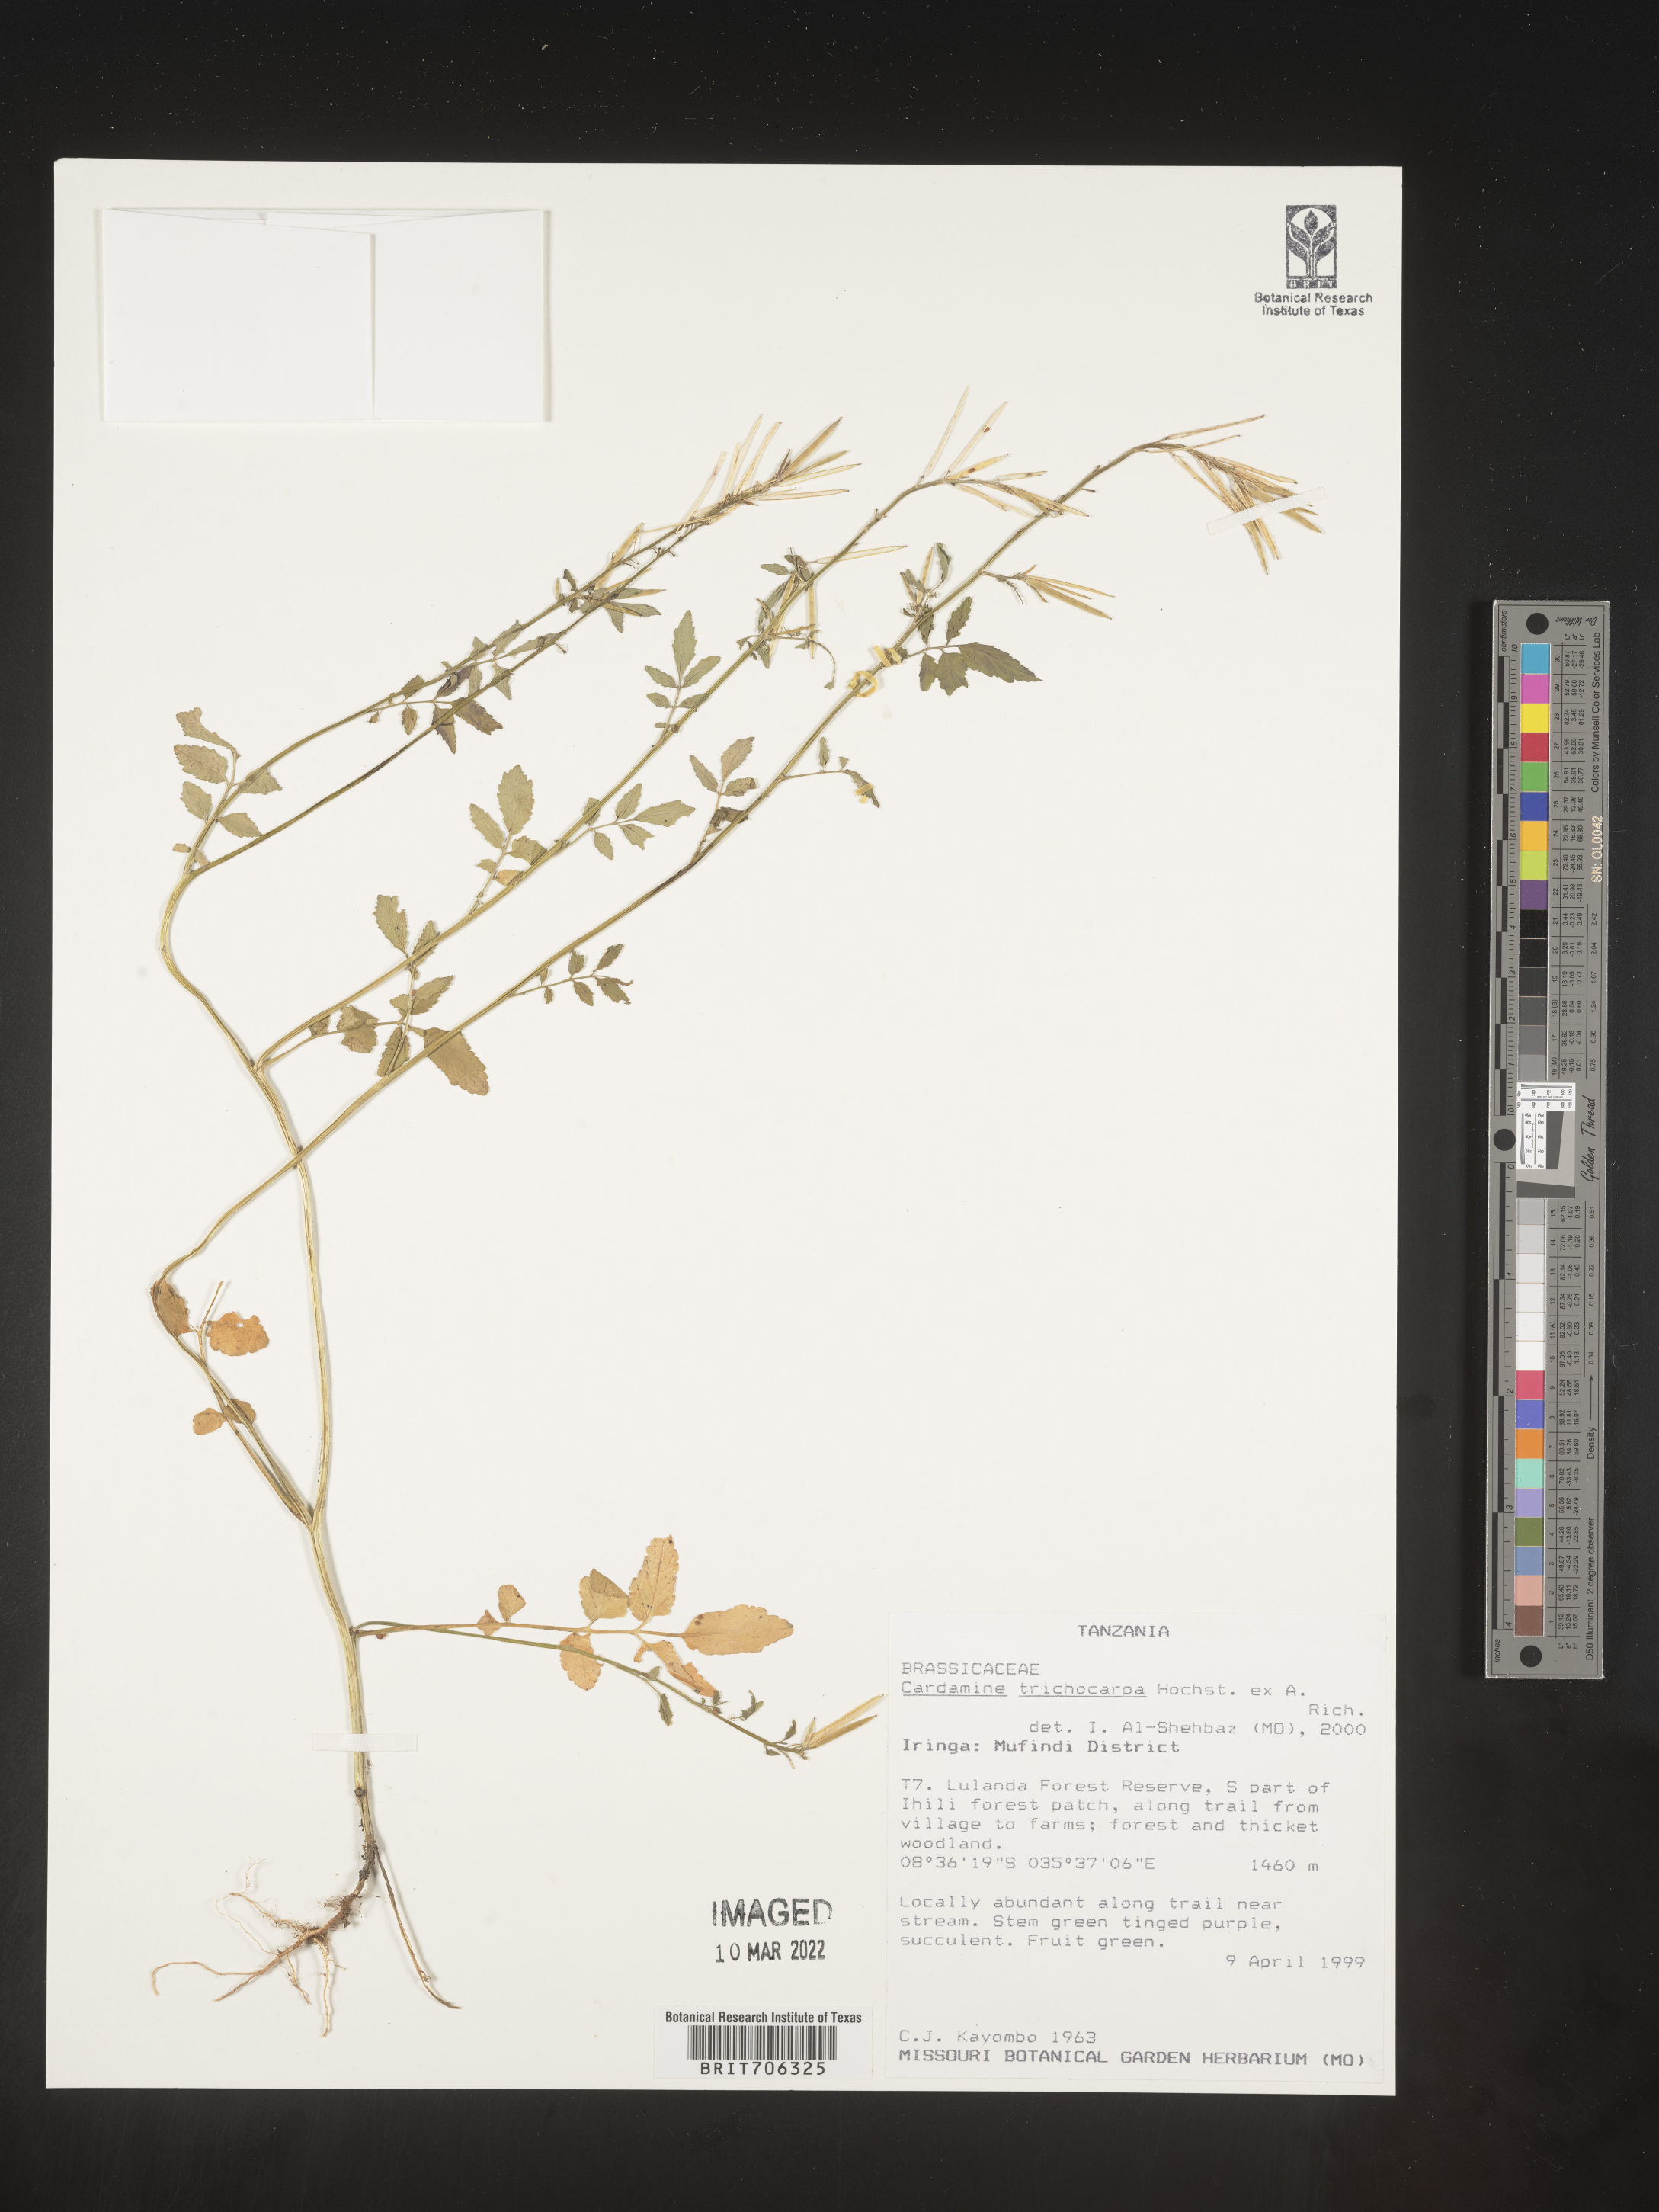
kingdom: Plantae
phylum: Tracheophyta
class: Magnoliopsida
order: Brassicales
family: Brassicaceae
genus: Cardamine
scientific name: Cardamine
